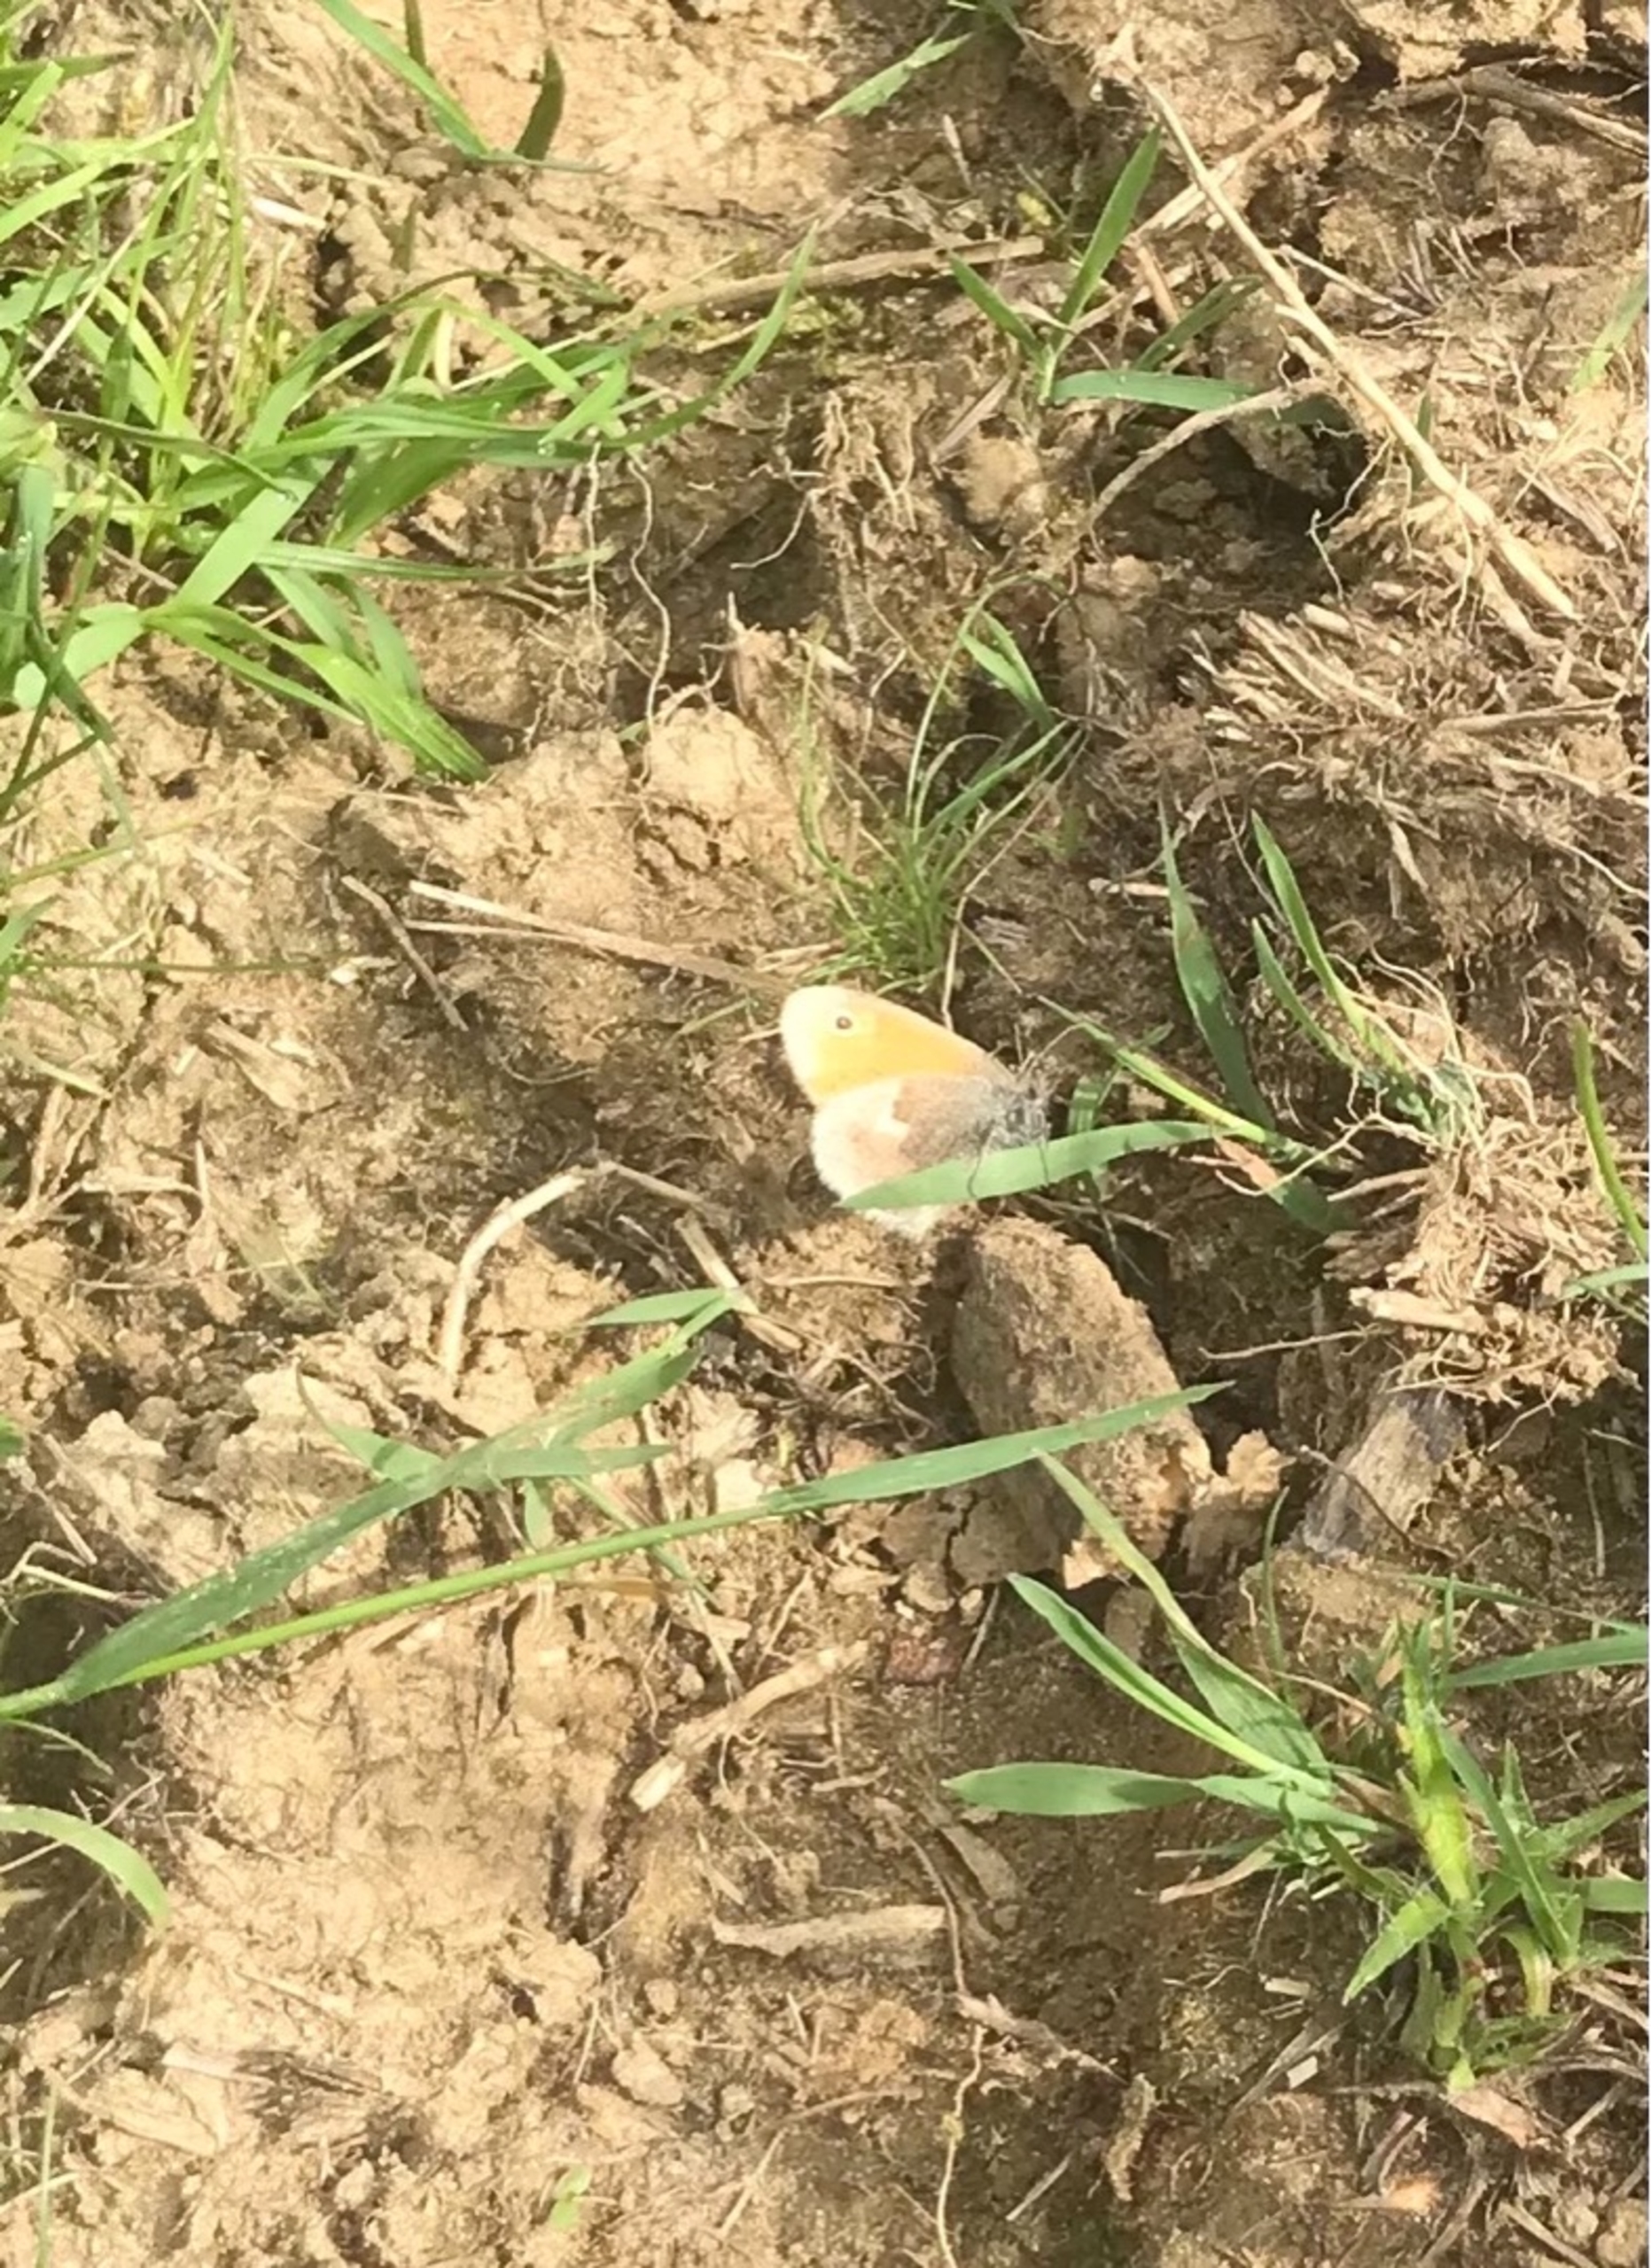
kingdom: Animalia
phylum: Arthropoda
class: Insecta
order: Lepidoptera
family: Nymphalidae
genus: Coenonympha
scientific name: Coenonympha pamphilus
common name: Okkergul randøje
